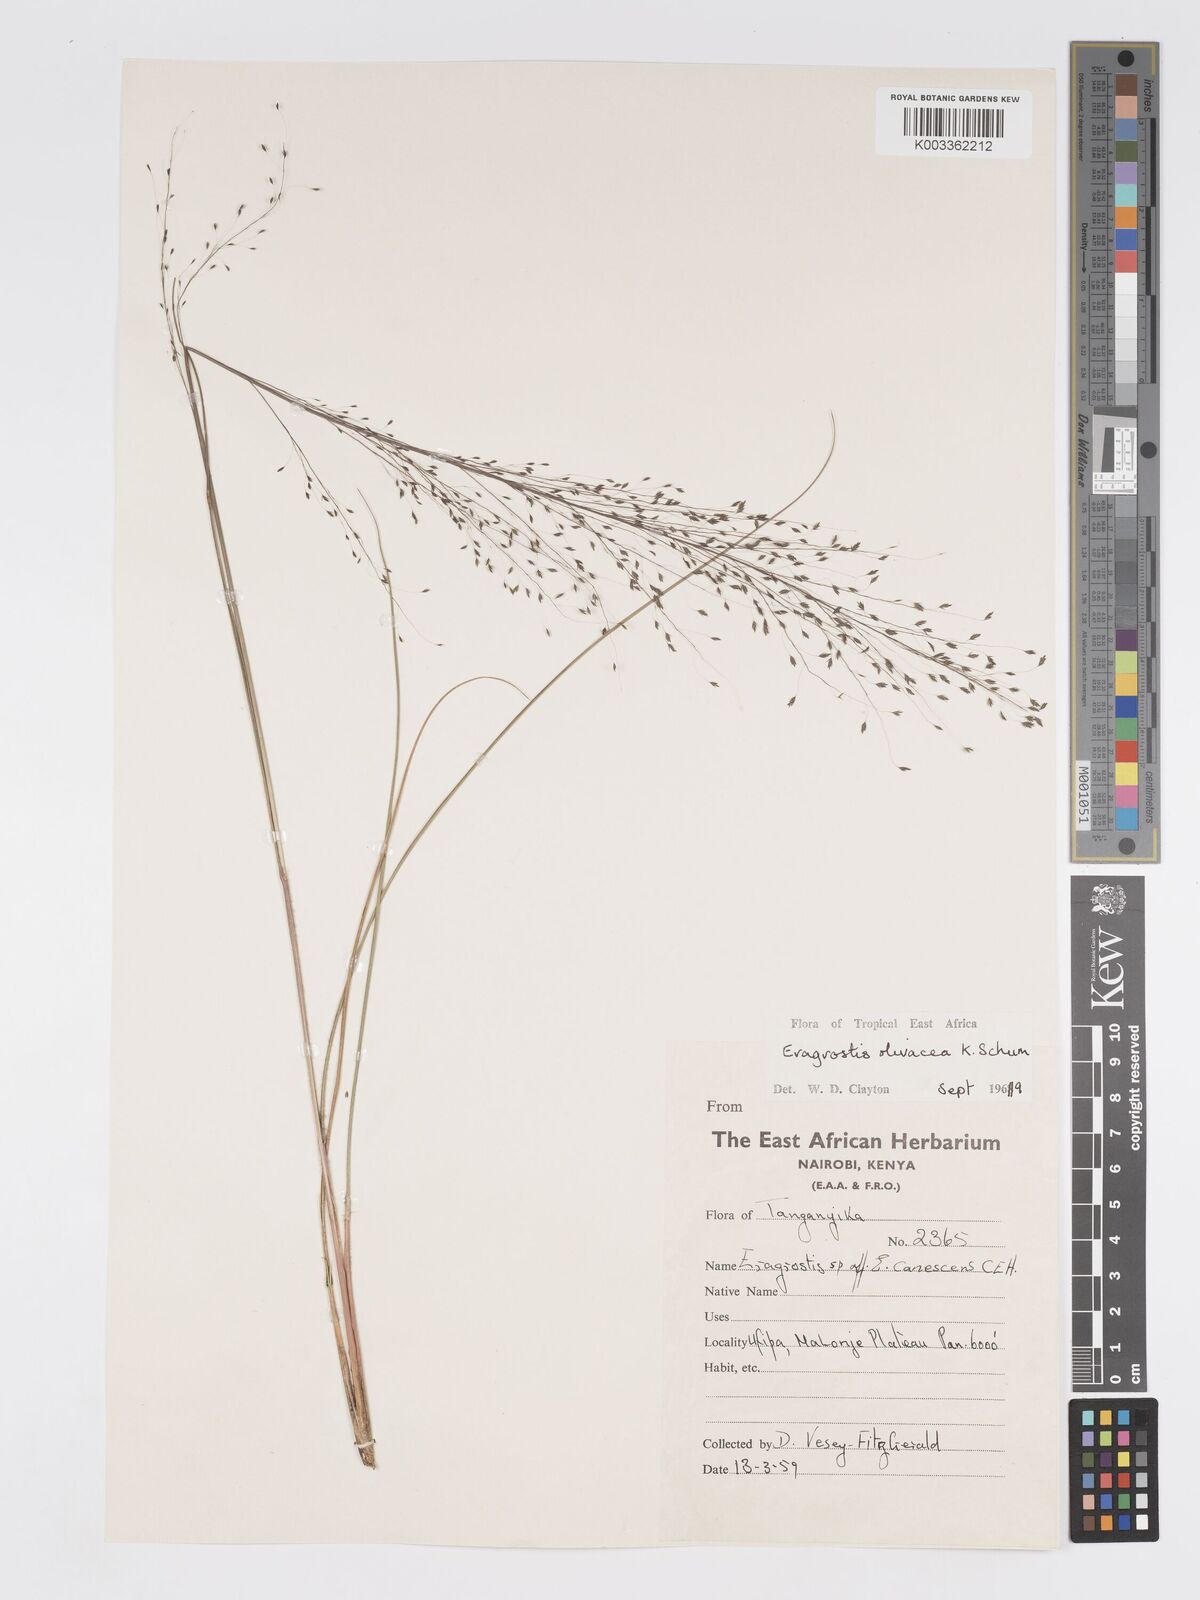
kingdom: Plantae
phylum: Tracheophyta
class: Liliopsida
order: Poales
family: Poaceae
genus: Eragrostis
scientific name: Eragrostis olivacea
